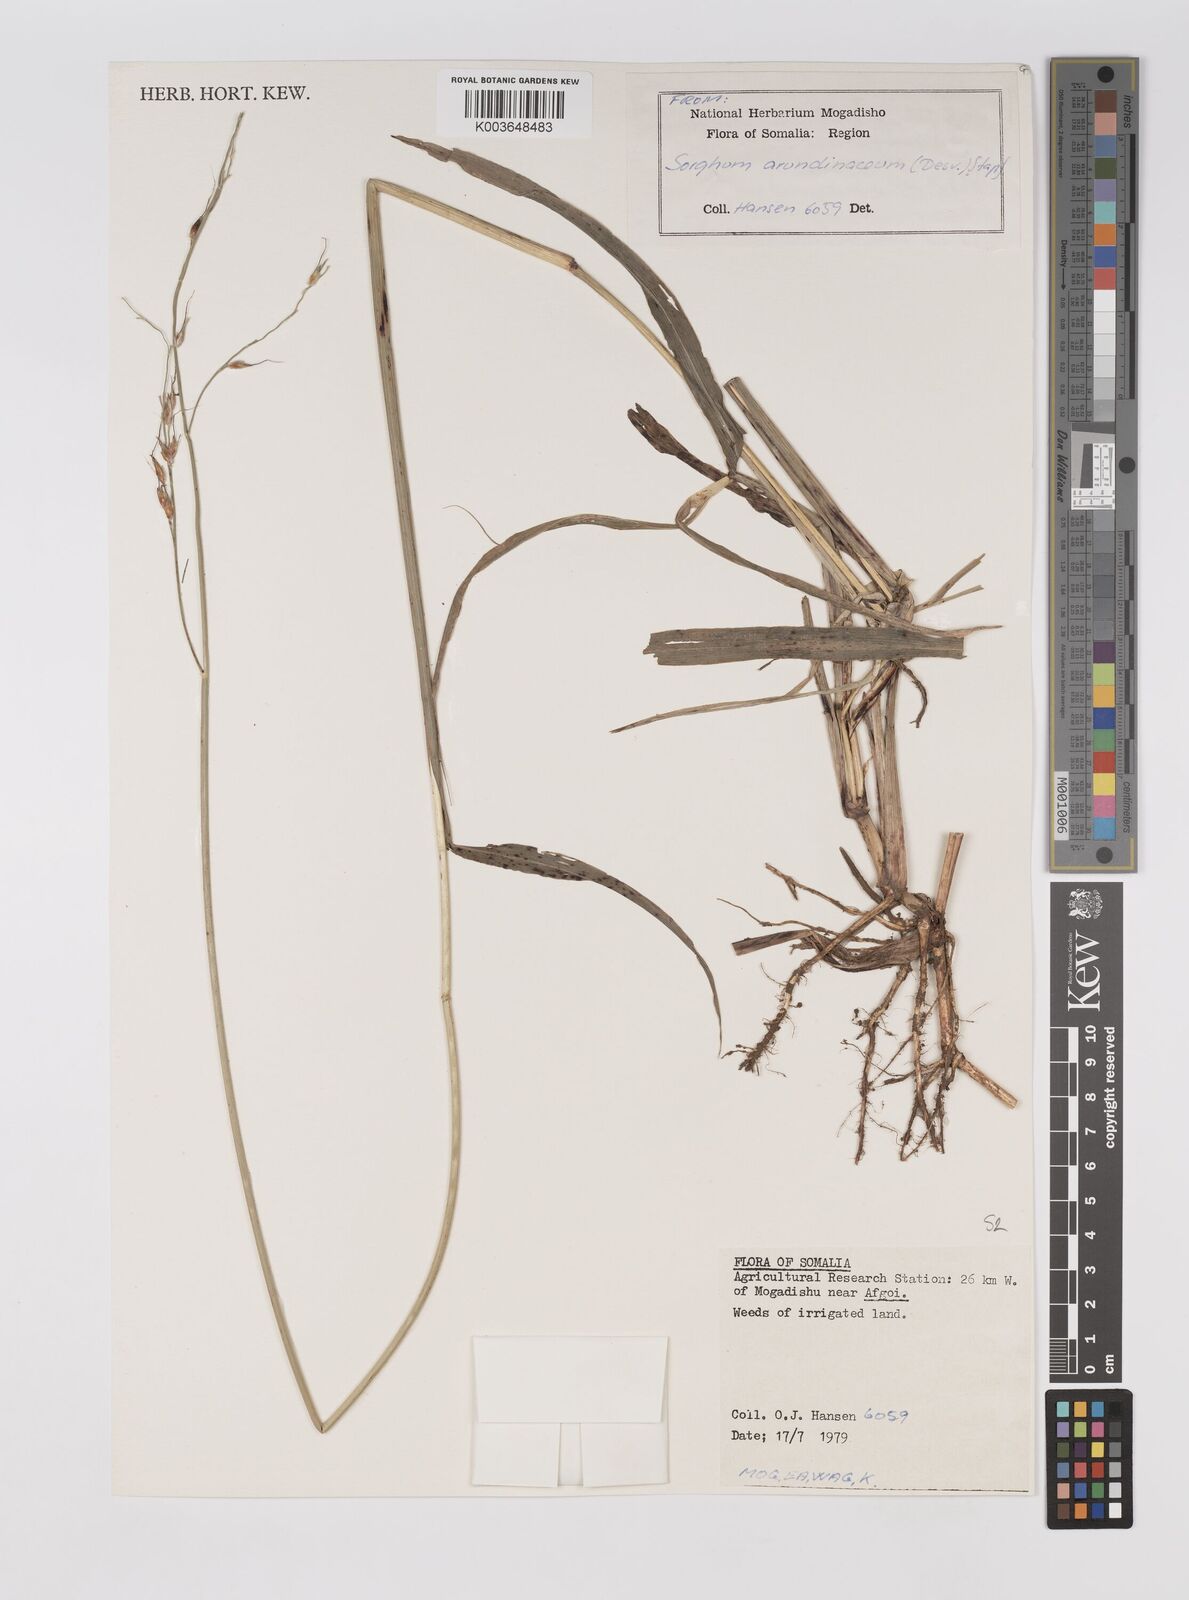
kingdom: Plantae
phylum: Tracheophyta
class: Liliopsida
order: Poales
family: Poaceae
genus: Sorghum
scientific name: Sorghum arundinaceum
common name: Sorghum
